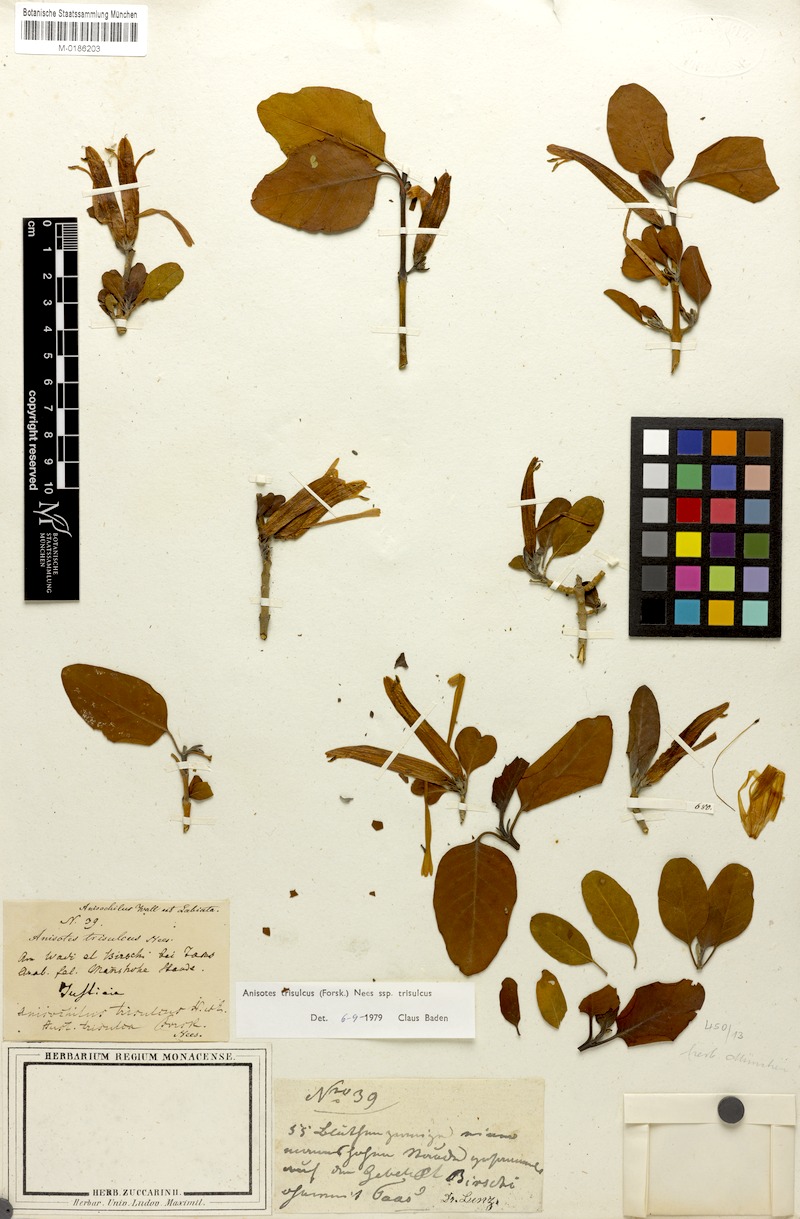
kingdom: Plantae
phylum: Tracheophyta
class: Magnoliopsida
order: Lamiales
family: Acanthaceae
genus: Anisotes
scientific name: Anisotes trisulcus
